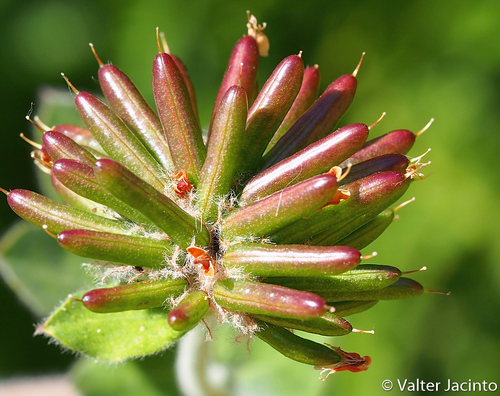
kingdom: Plantae
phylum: Tracheophyta
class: Magnoliopsida
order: Fabales
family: Fabaceae
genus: Lotus
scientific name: Lotus rectus
